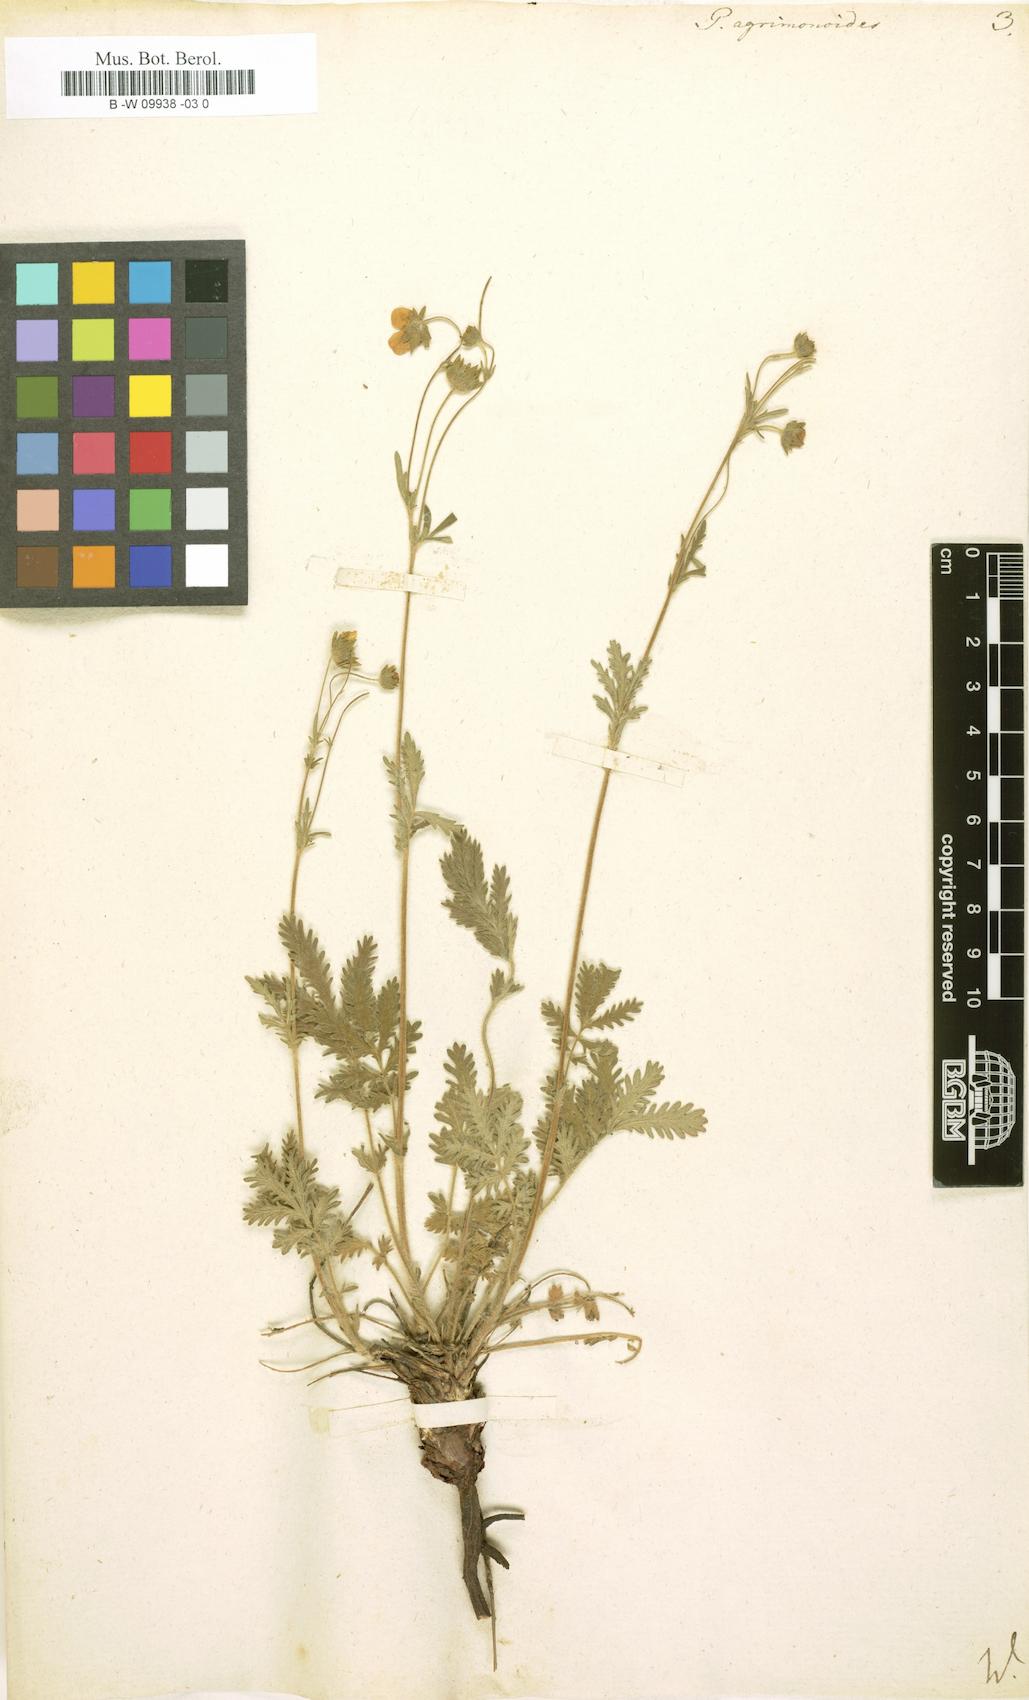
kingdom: Plantae
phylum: Tracheophyta
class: Magnoliopsida
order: Rosales
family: Rosaceae
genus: Potentilla
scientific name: Potentilla agrimonoides
